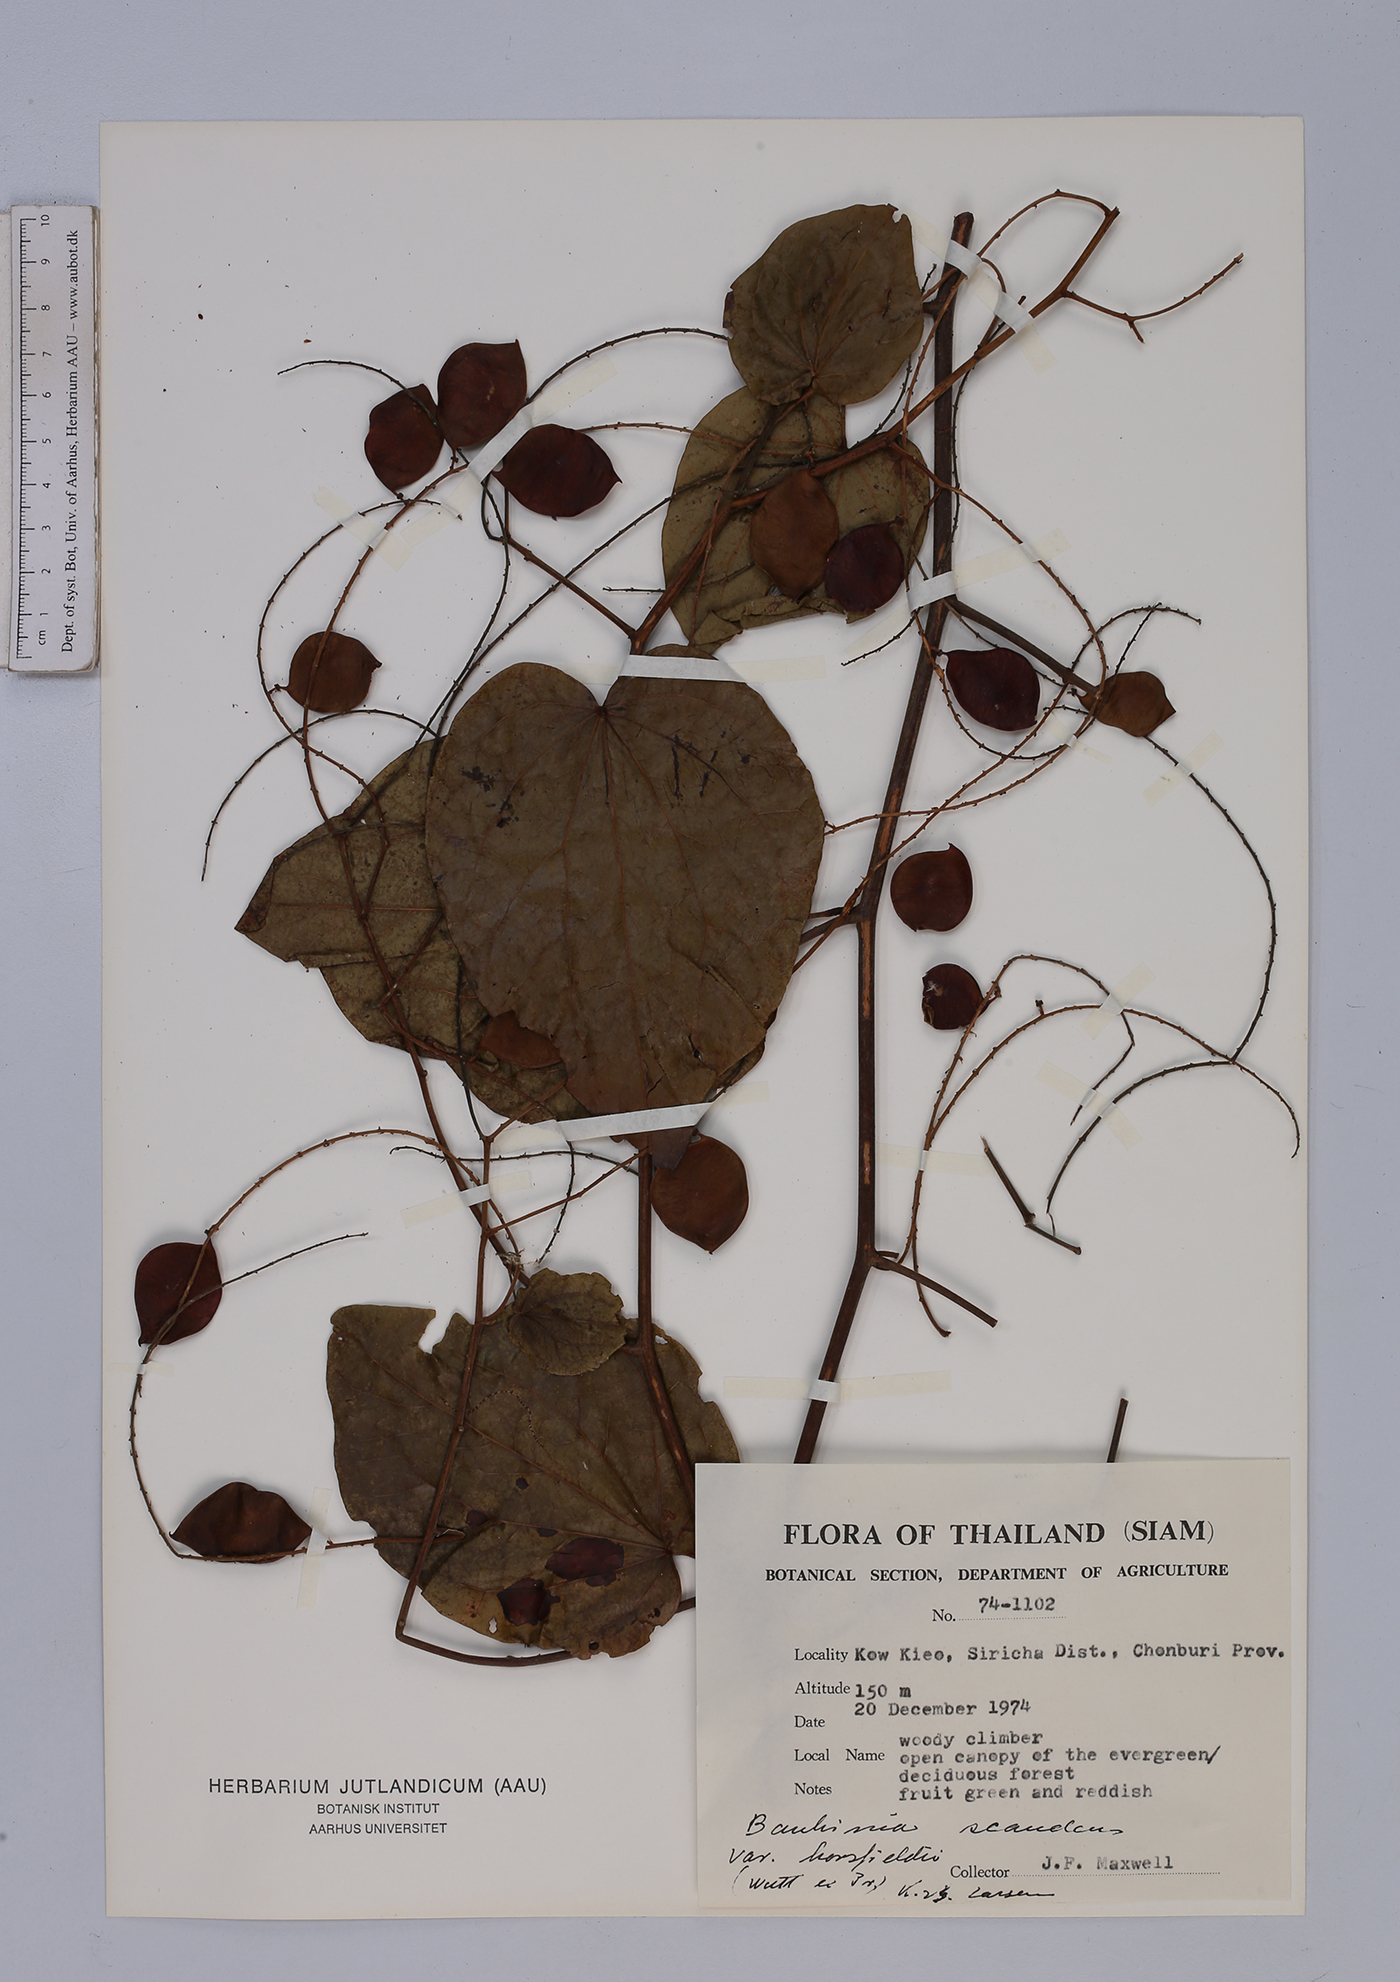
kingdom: Plantae
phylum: Tracheophyta
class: Magnoliopsida
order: Fabales
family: Fabaceae
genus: Phanera
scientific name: Phanera scandens
